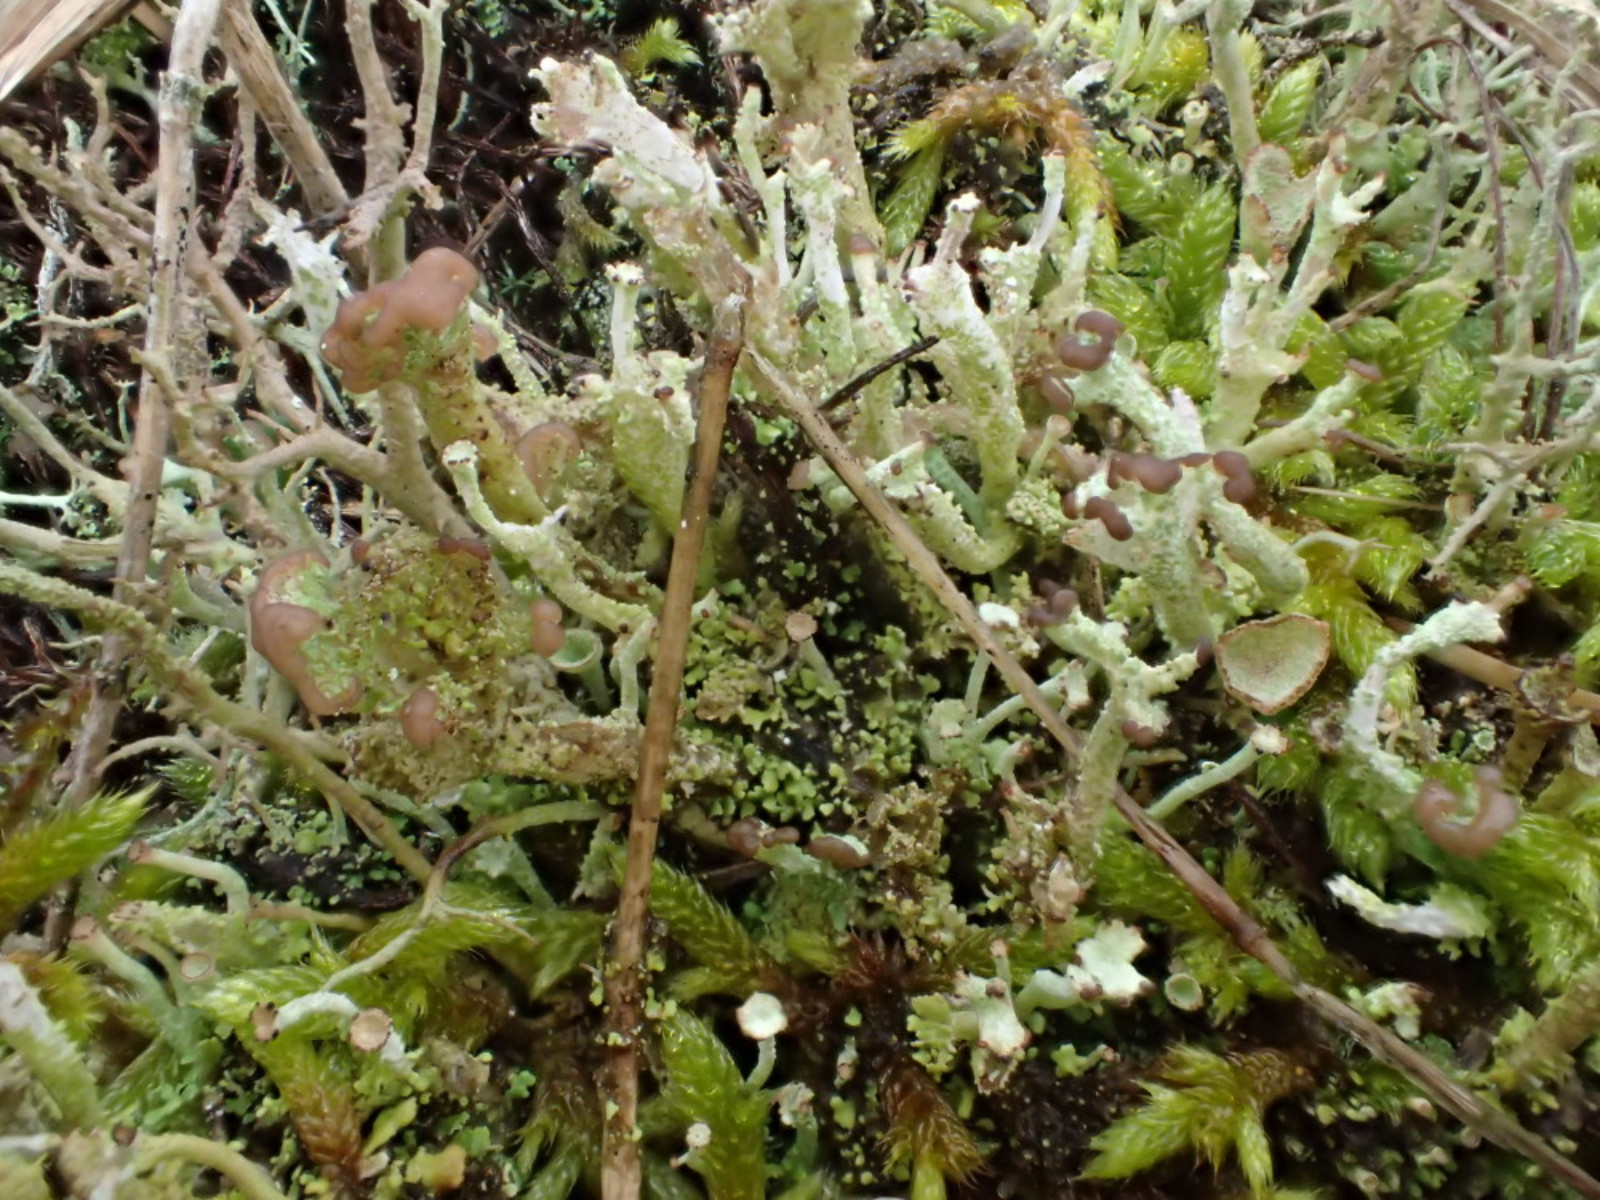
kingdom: Fungi
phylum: Ascomycota
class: Lecanoromycetes
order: Lecanorales
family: Cladoniaceae
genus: Cladonia
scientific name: Cladonia ramulosa
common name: kliddet bægerlav
